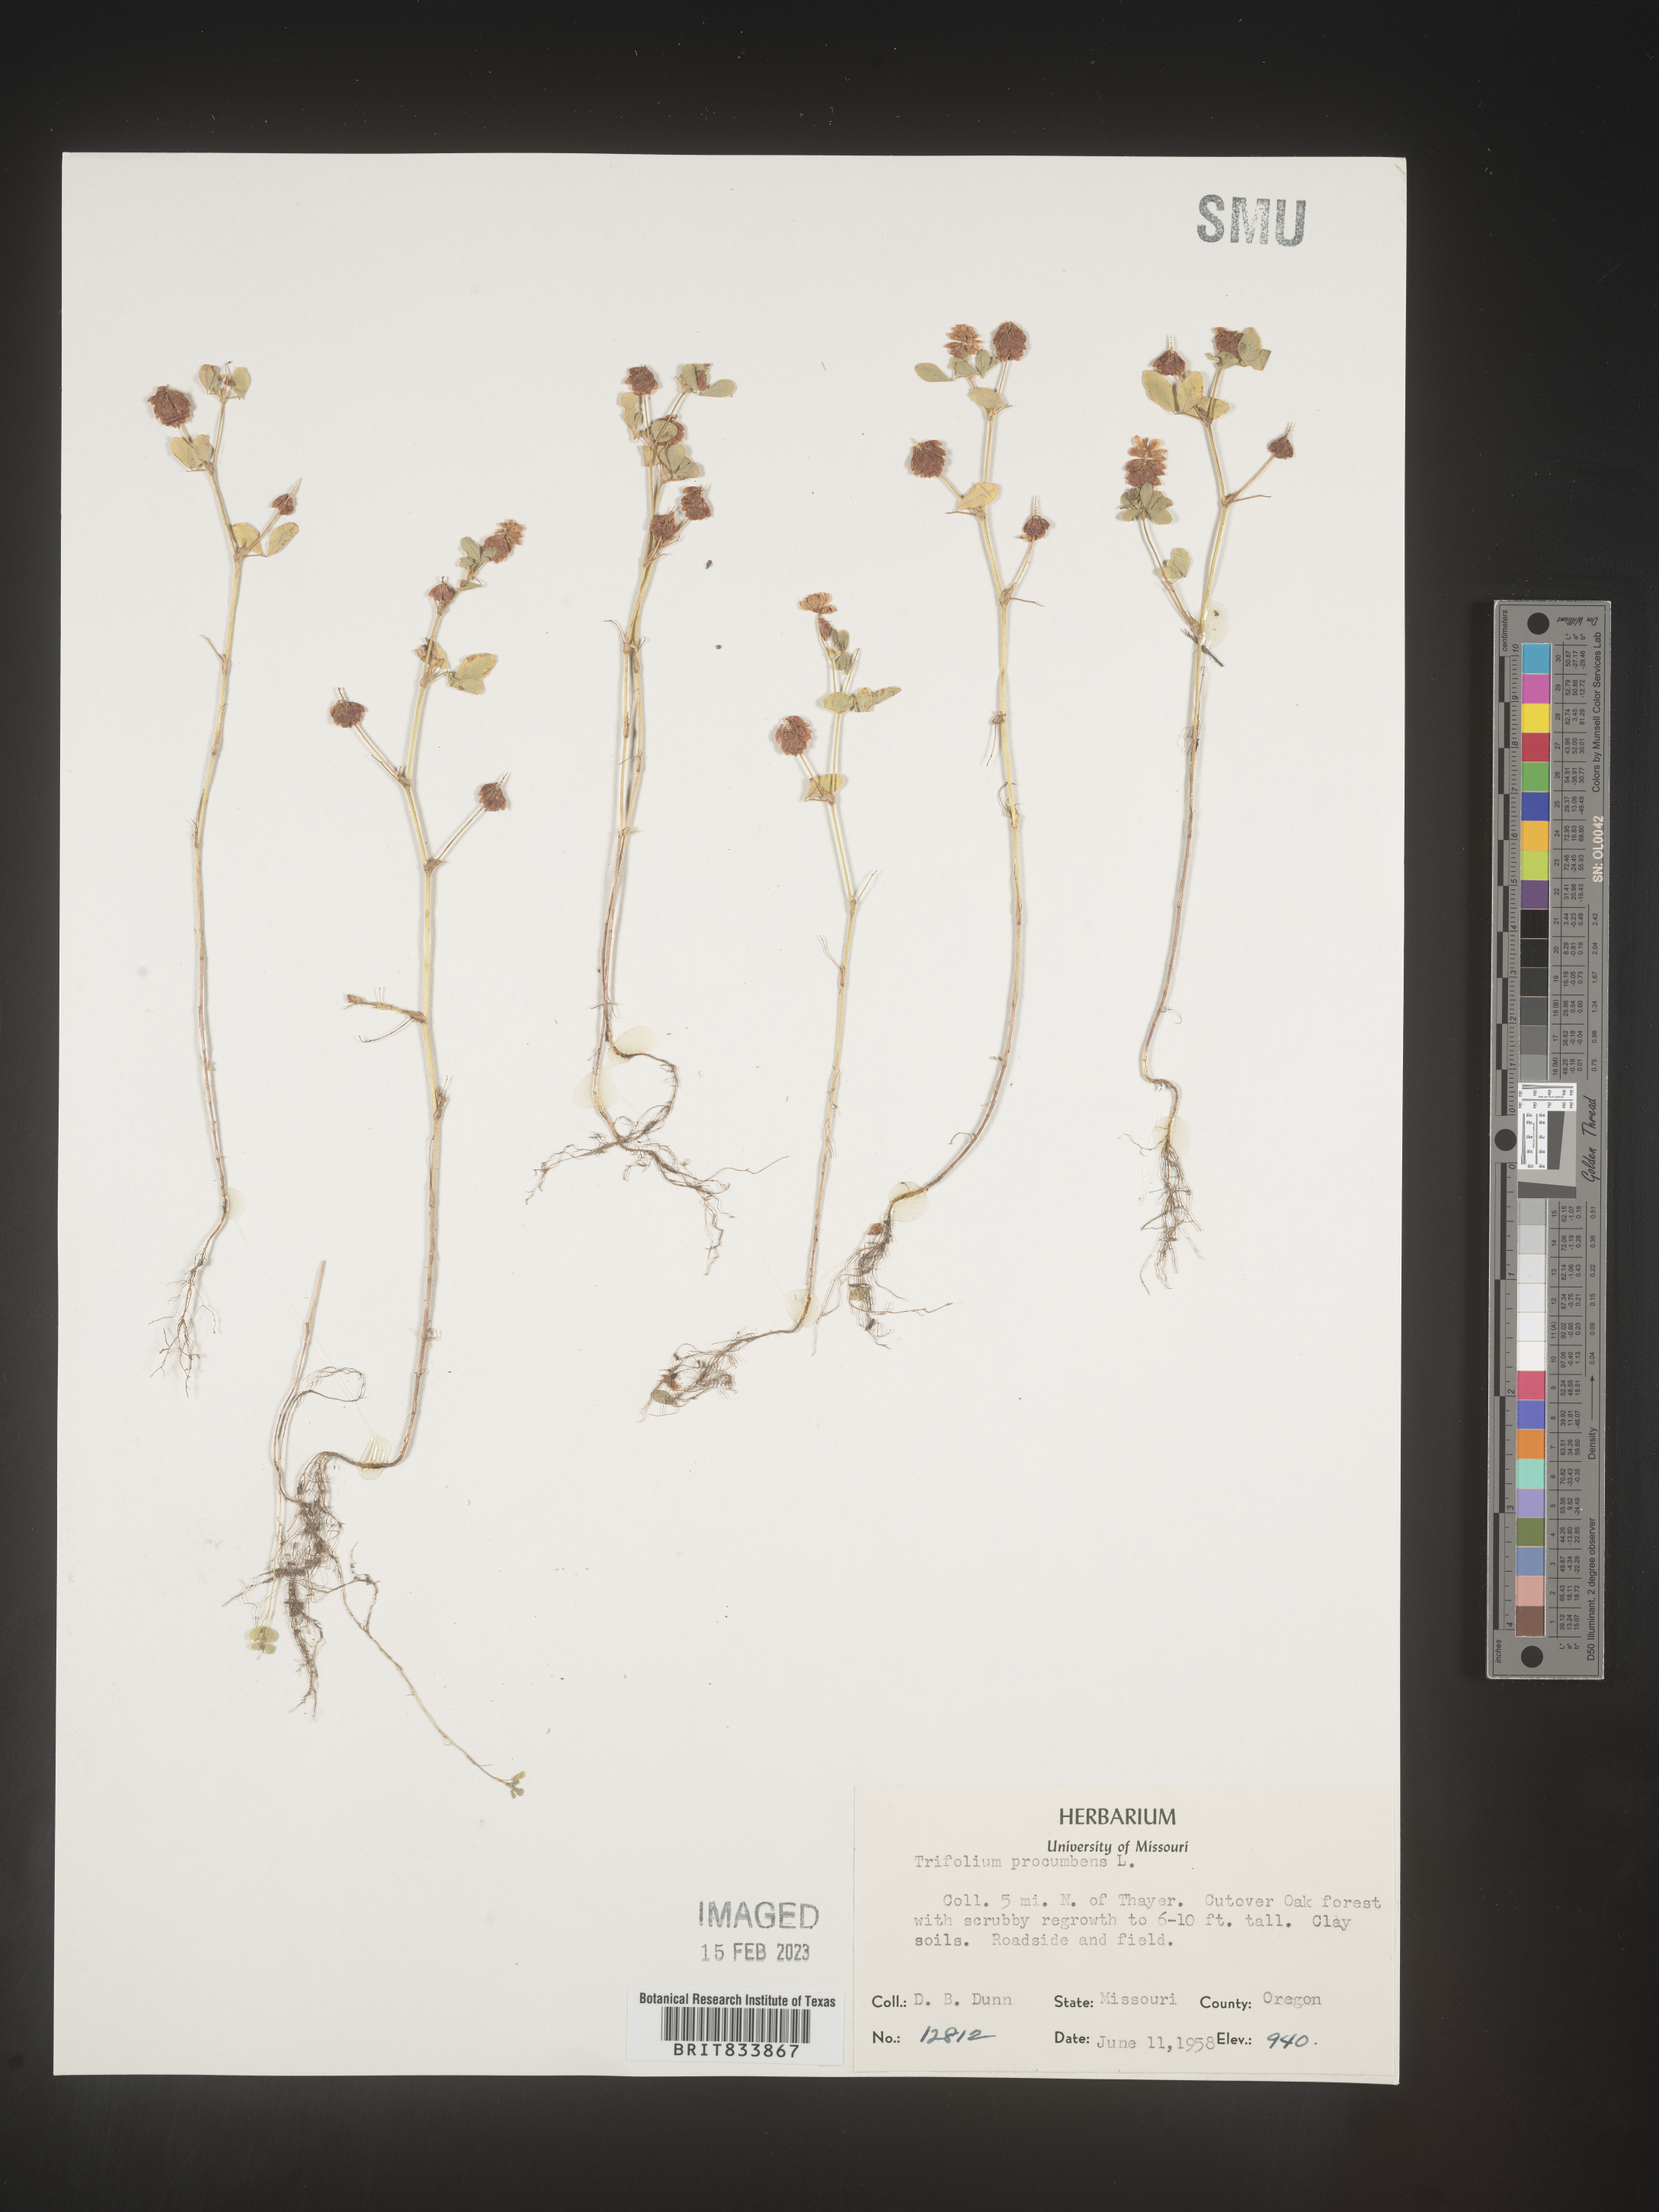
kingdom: Plantae
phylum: Tracheophyta
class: Magnoliopsida
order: Fabales
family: Fabaceae
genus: Trifolium
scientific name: Trifolium campestre
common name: Field clover
